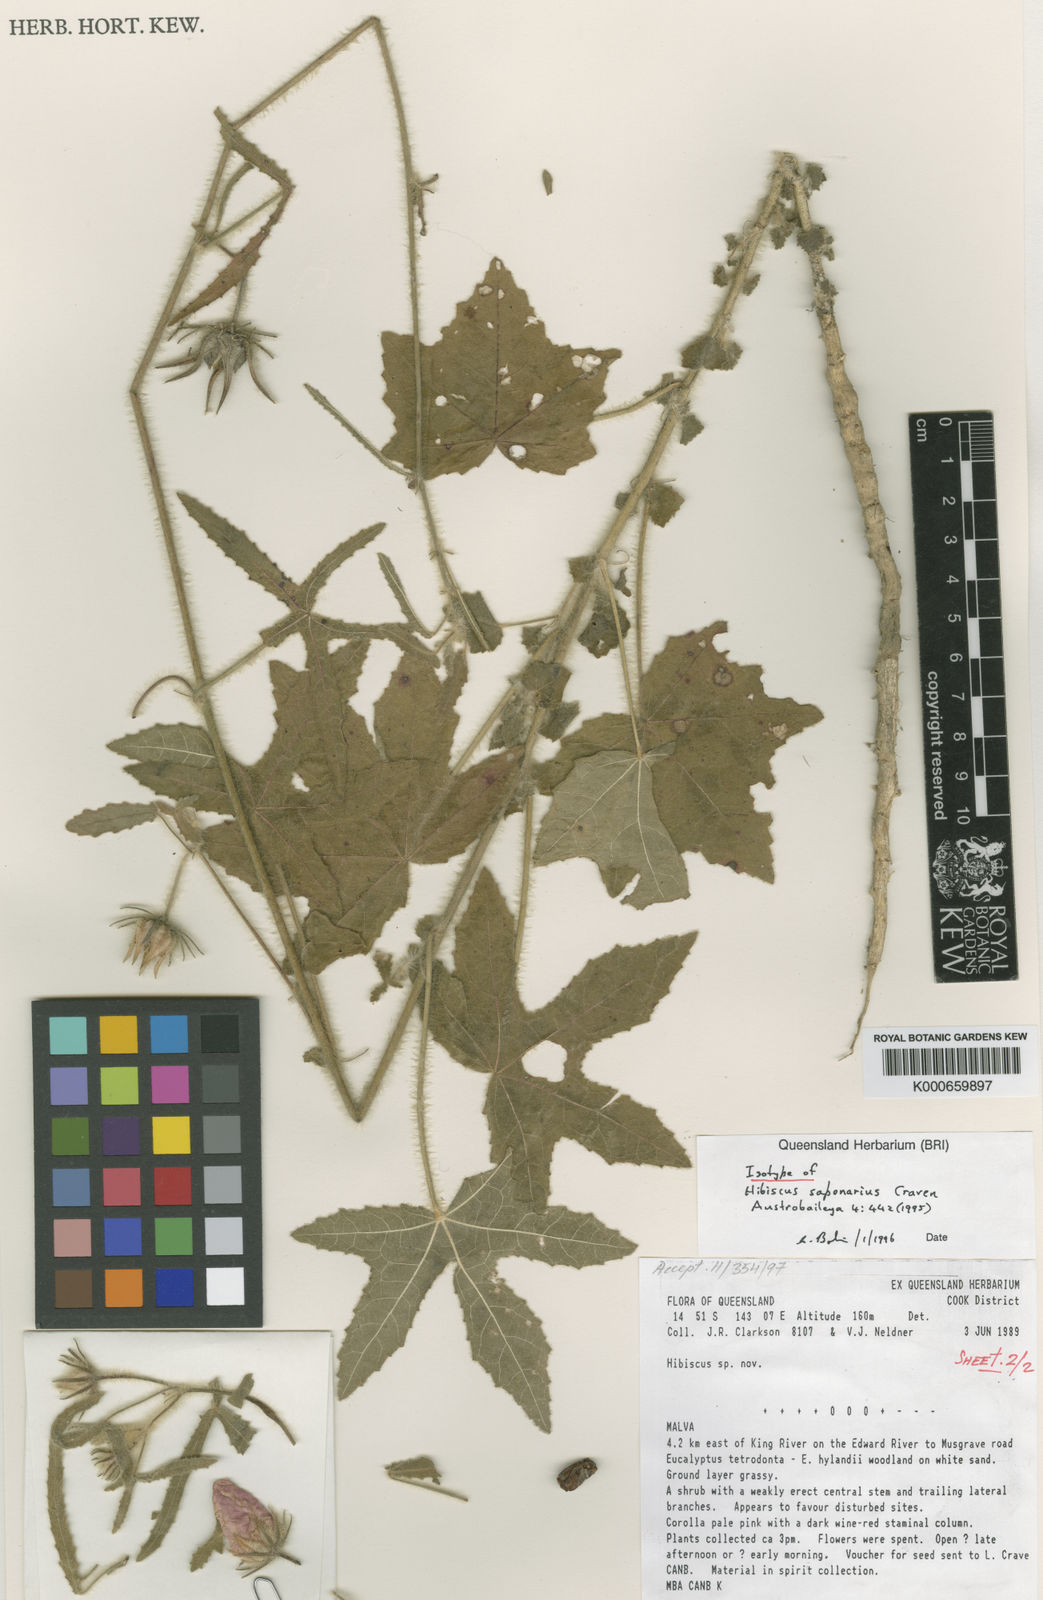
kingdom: Plantae
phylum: Tracheophyta
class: Magnoliopsida
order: Malvales
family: Malvaceae
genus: Hibiscus
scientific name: Hibiscus saponarius
